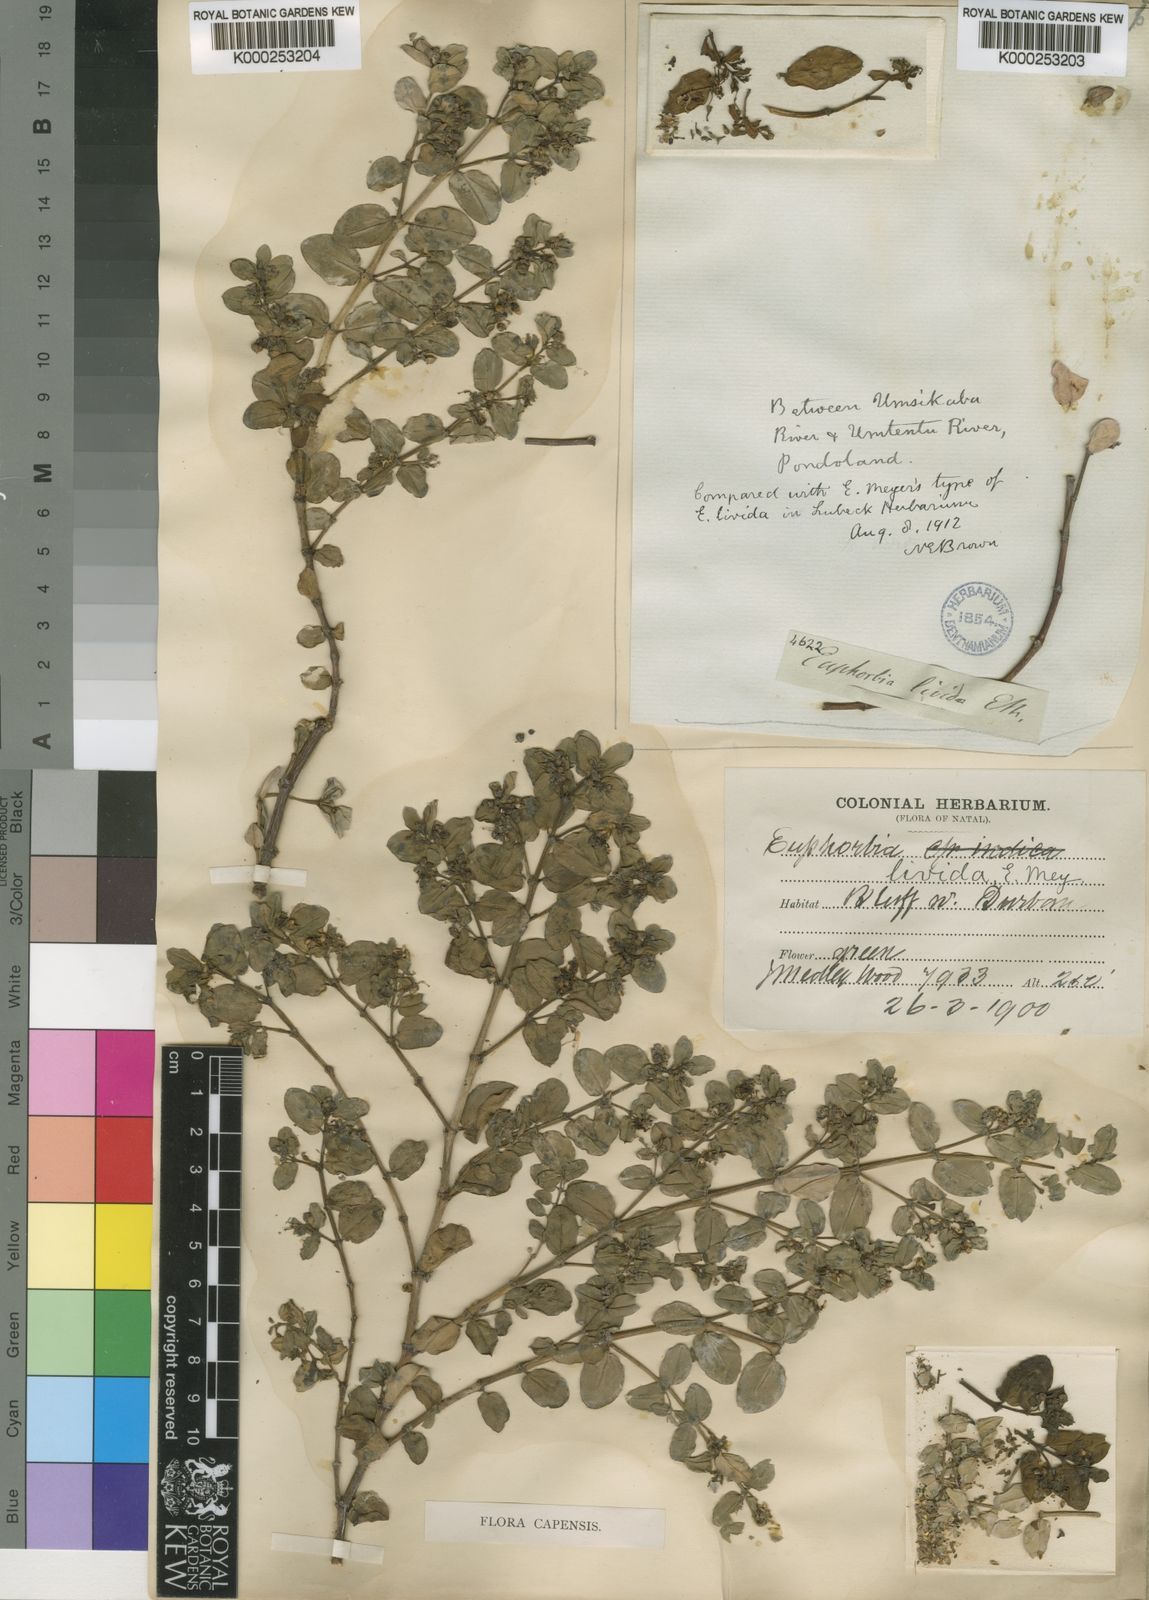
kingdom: Plantae
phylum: Tracheophyta
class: Magnoliopsida
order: Malpighiales
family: Euphorbiaceae
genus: Euphorbia
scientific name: Euphorbia
